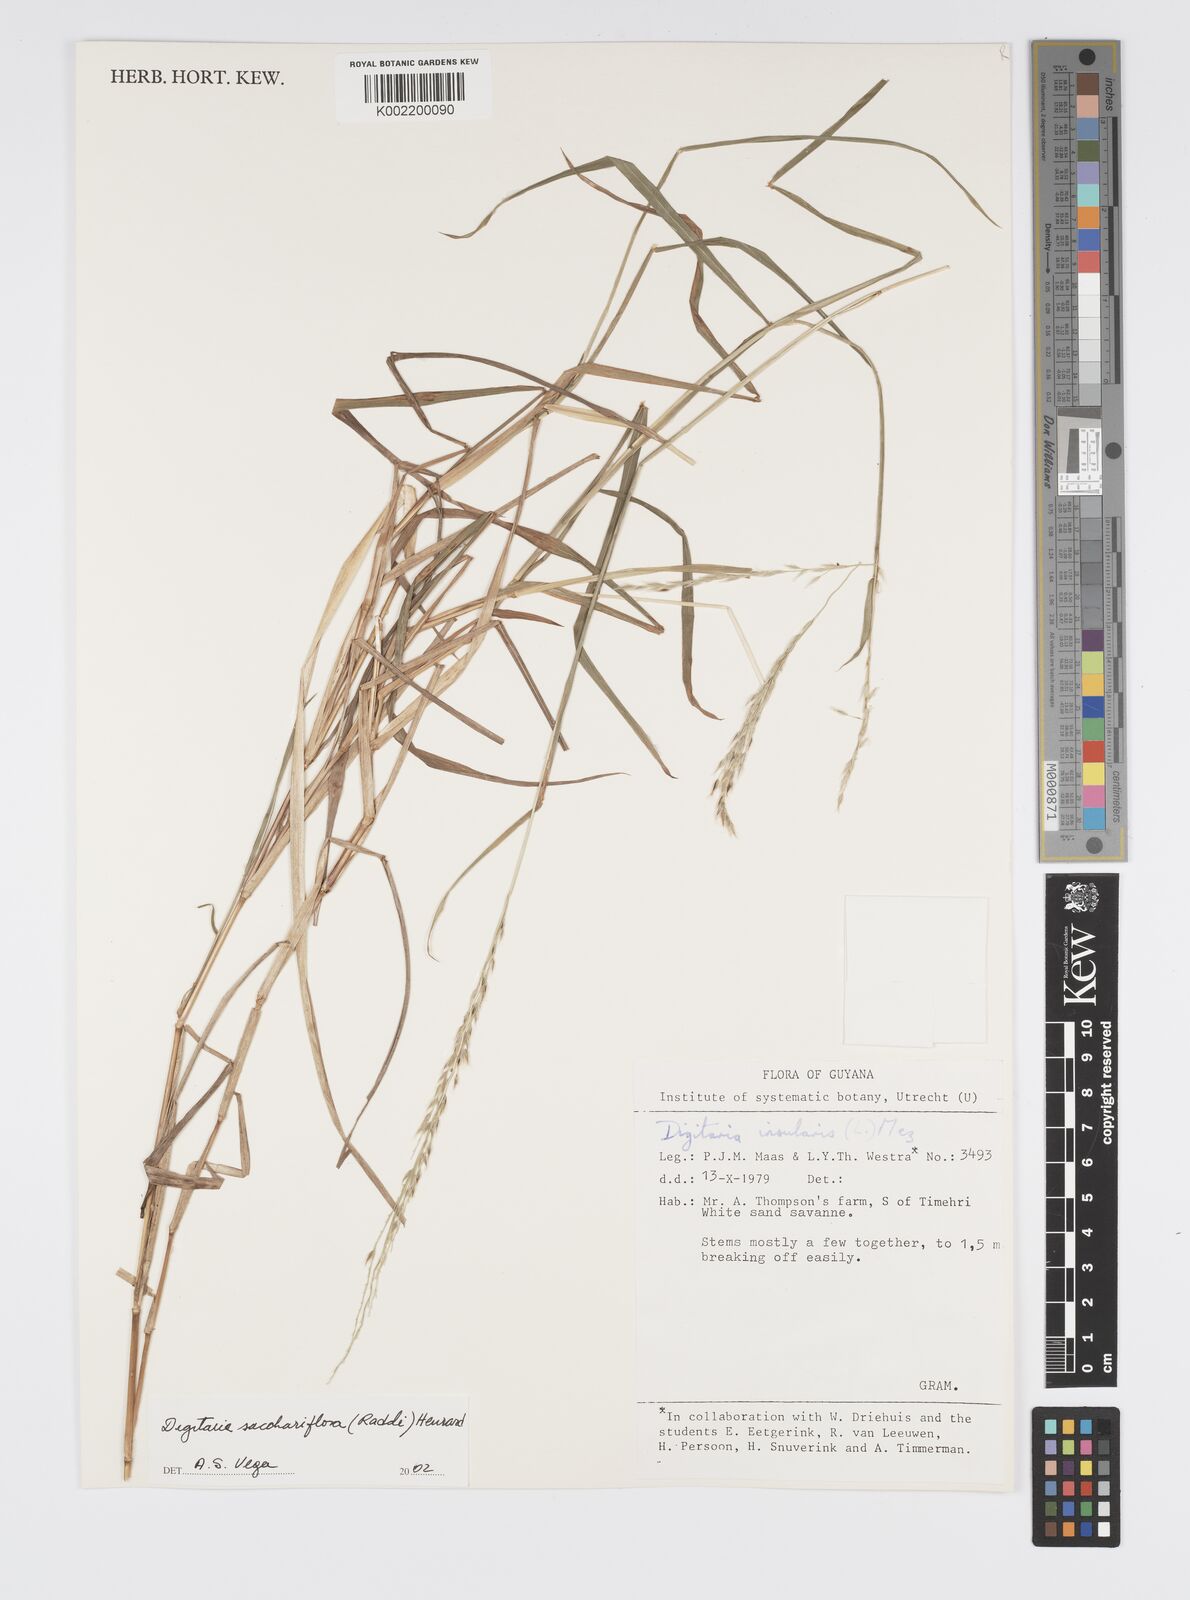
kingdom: Plantae
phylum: Tracheophyta
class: Liliopsida
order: Poales
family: Poaceae
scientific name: Poaceae
